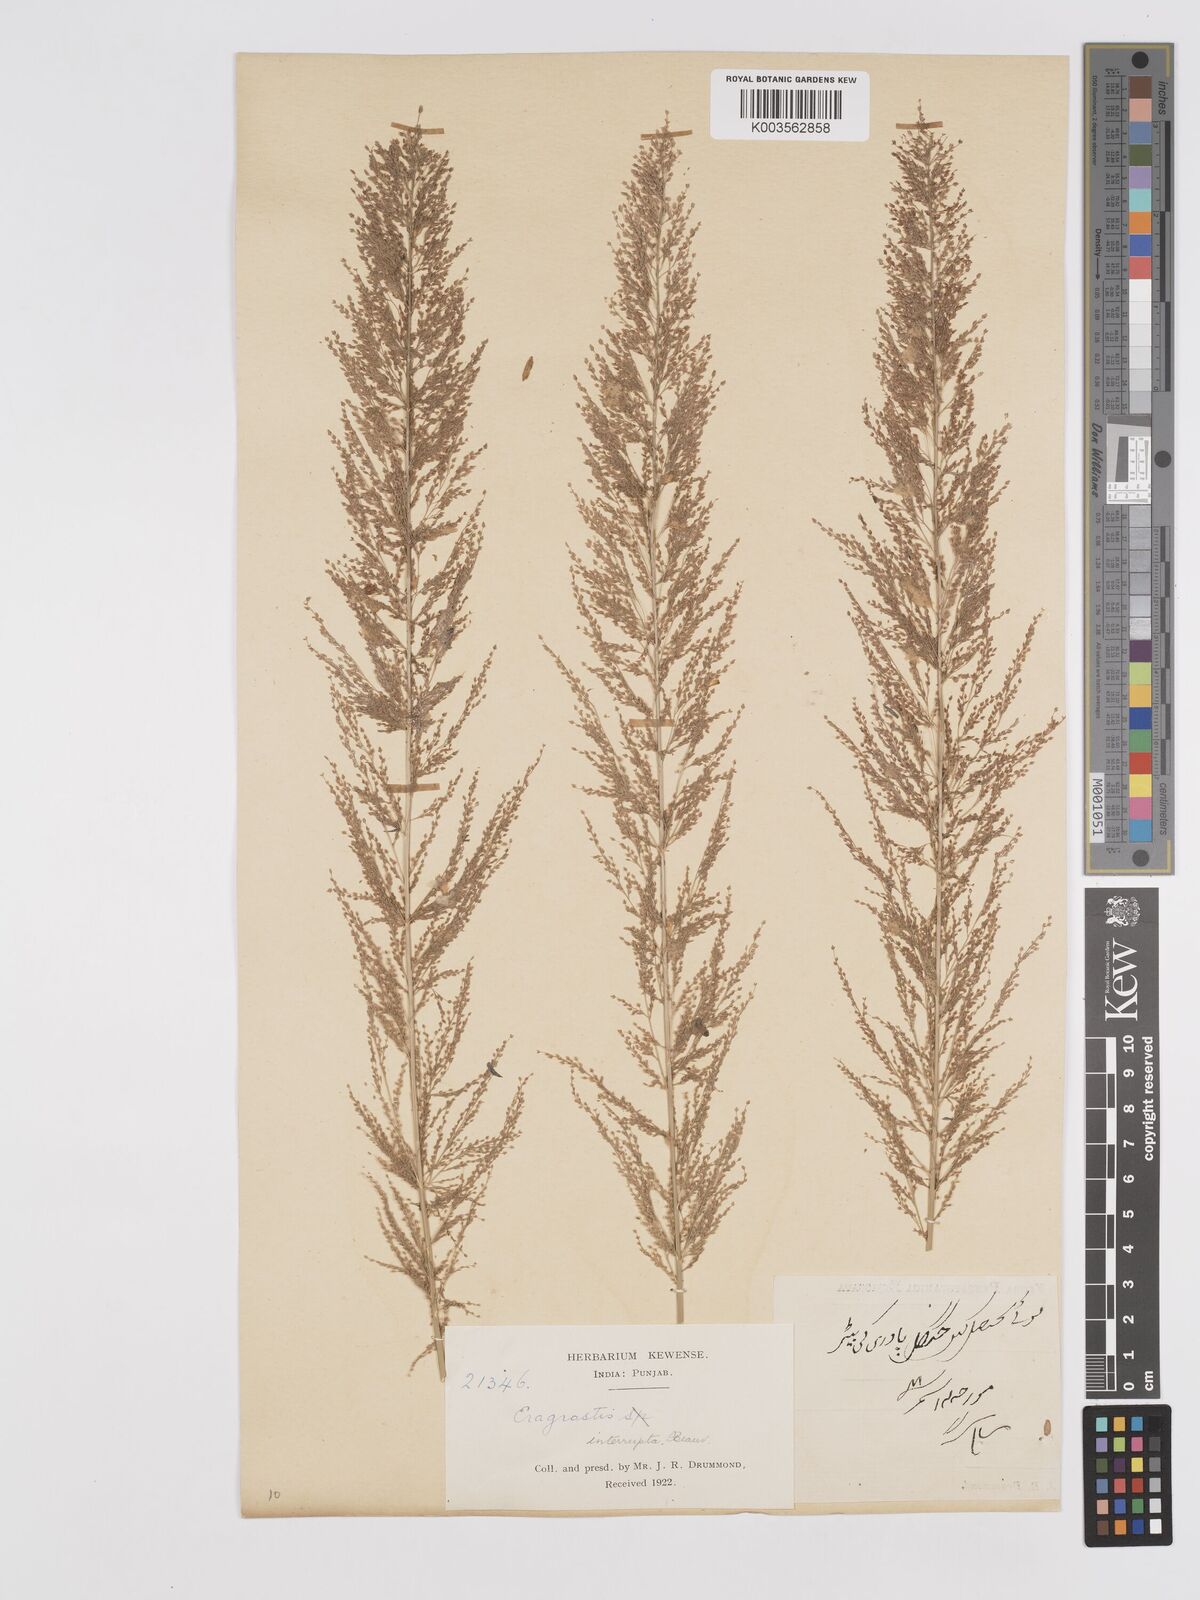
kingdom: Plantae
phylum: Tracheophyta
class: Liliopsida
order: Poales
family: Poaceae
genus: Eragrostis
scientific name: Eragrostis japonica
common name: Pond lovegrass
